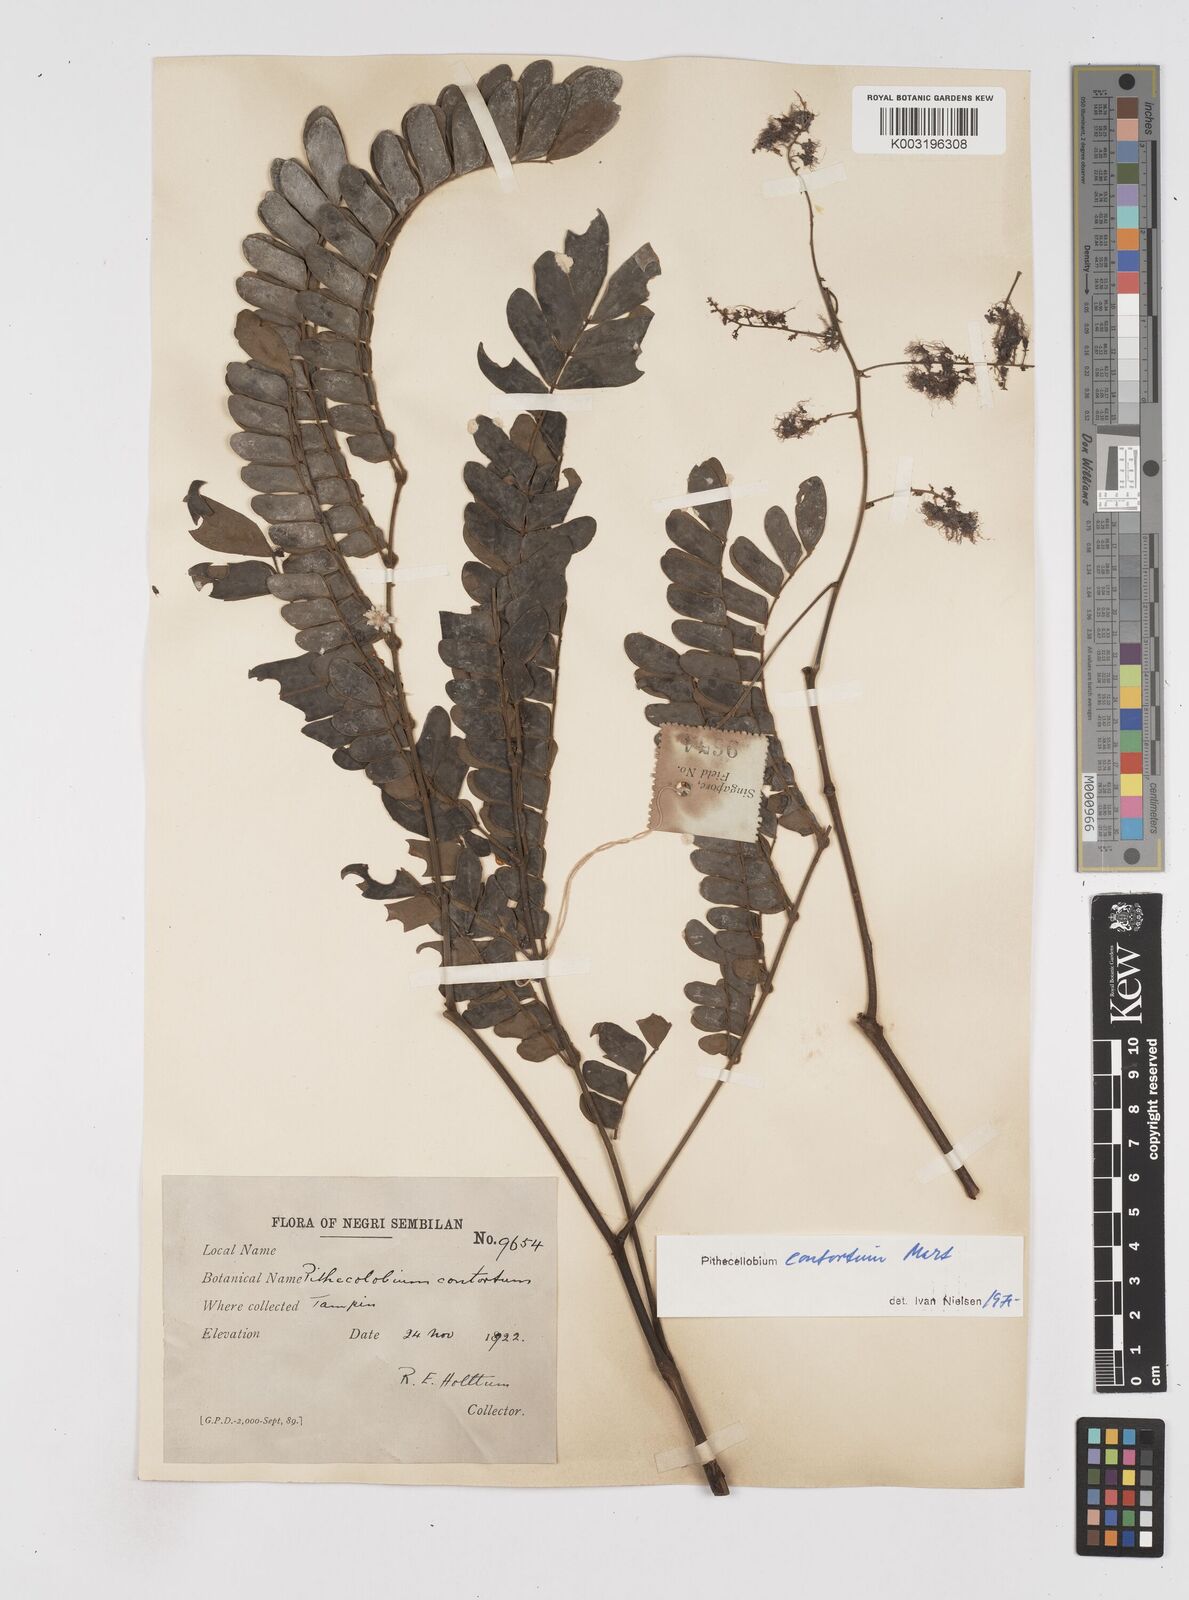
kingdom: Plantae
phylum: Tracheophyta
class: Magnoliopsida
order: Fabales
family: Fabaceae
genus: Archidendron
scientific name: Archidendron contortum
